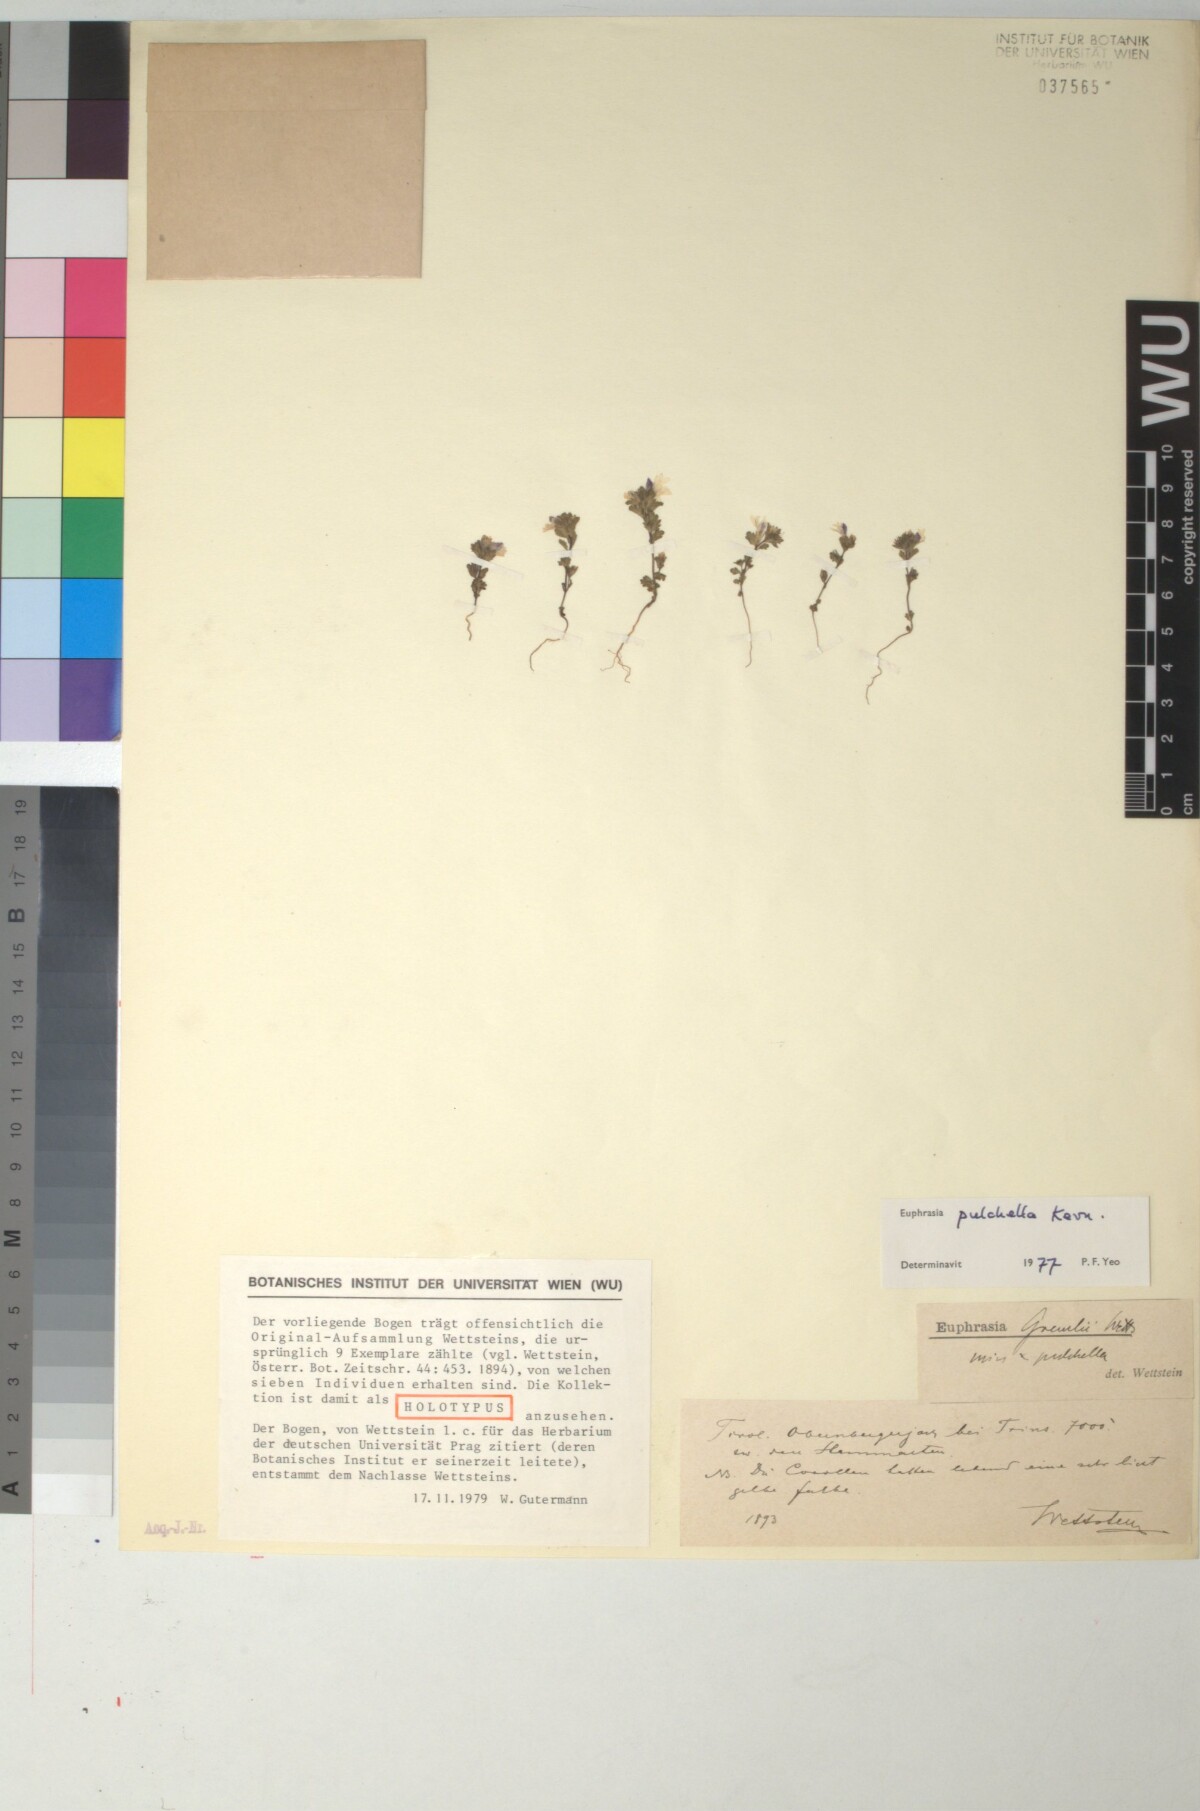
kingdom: Plantae
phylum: Tracheophyta
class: Magnoliopsida
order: Lamiales
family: Scrophulariaceae
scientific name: Scrophulariaceae
